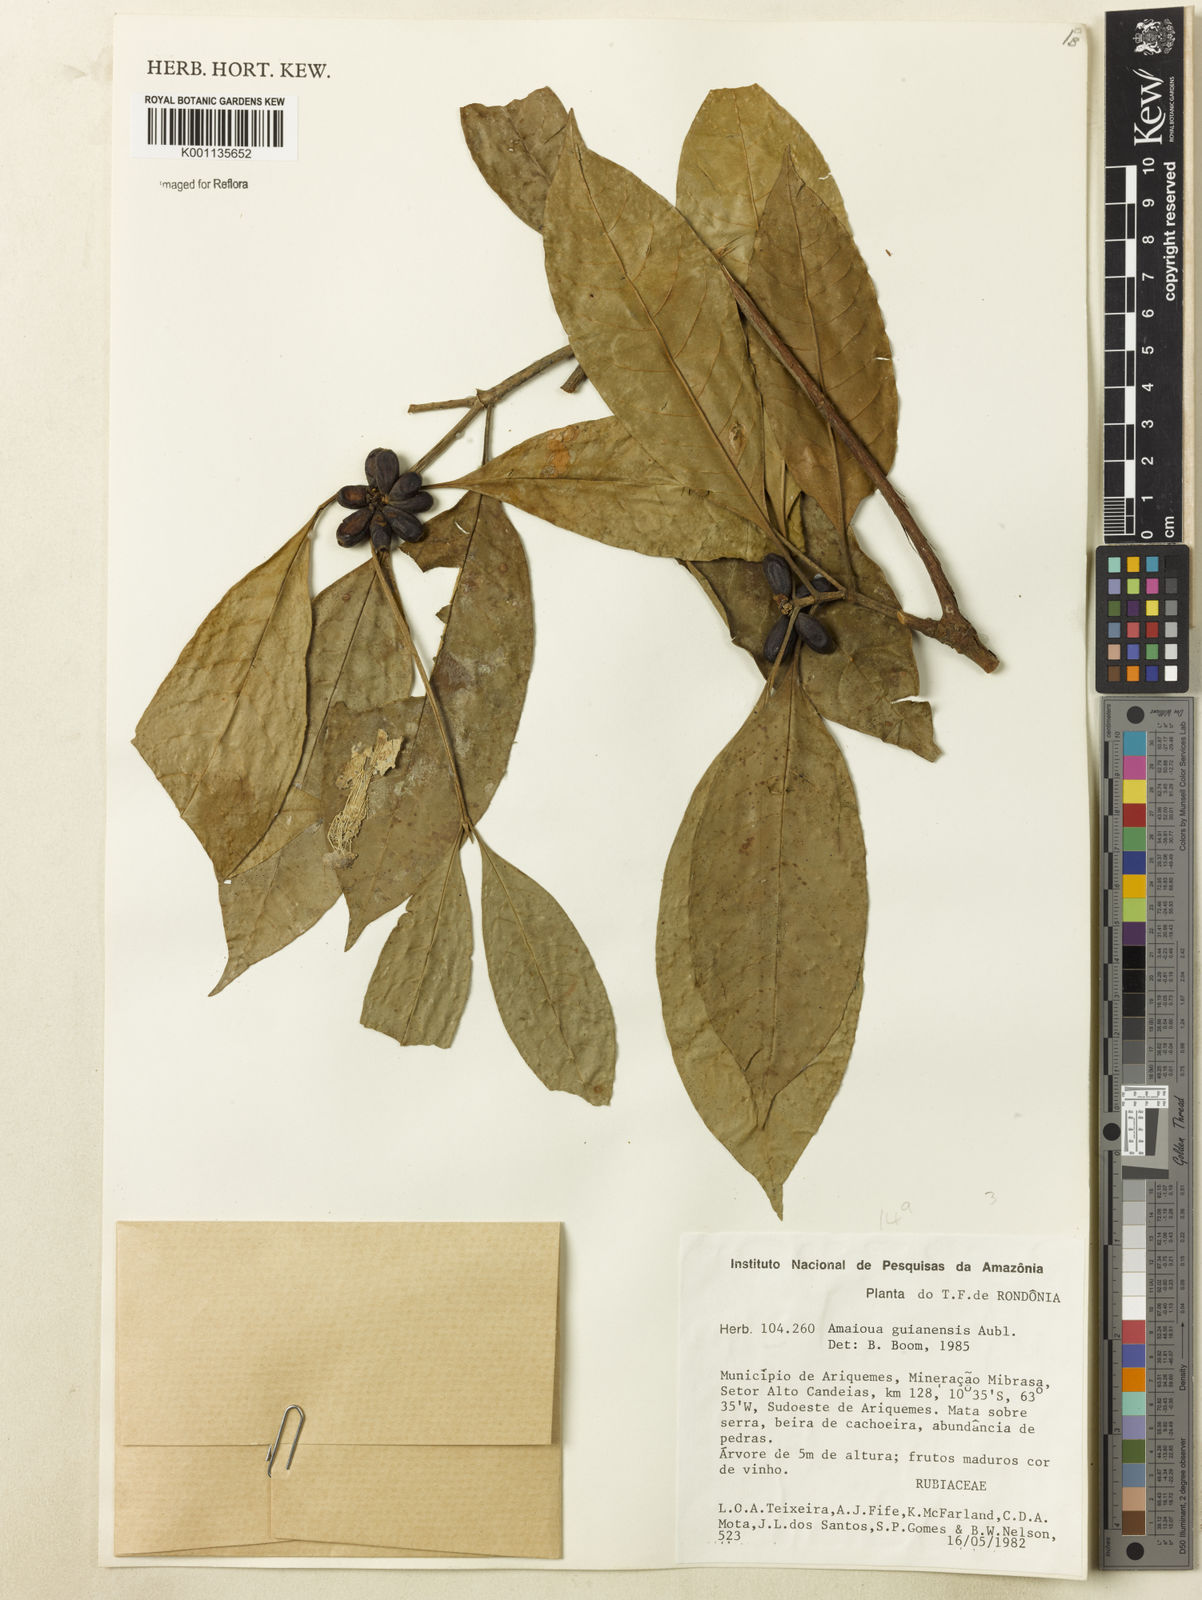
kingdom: Plantae
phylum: Tracheophyta
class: Magnoliopsida
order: Gentianales
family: Rubiaceae
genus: Amaioua
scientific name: Amaioua guianensis
